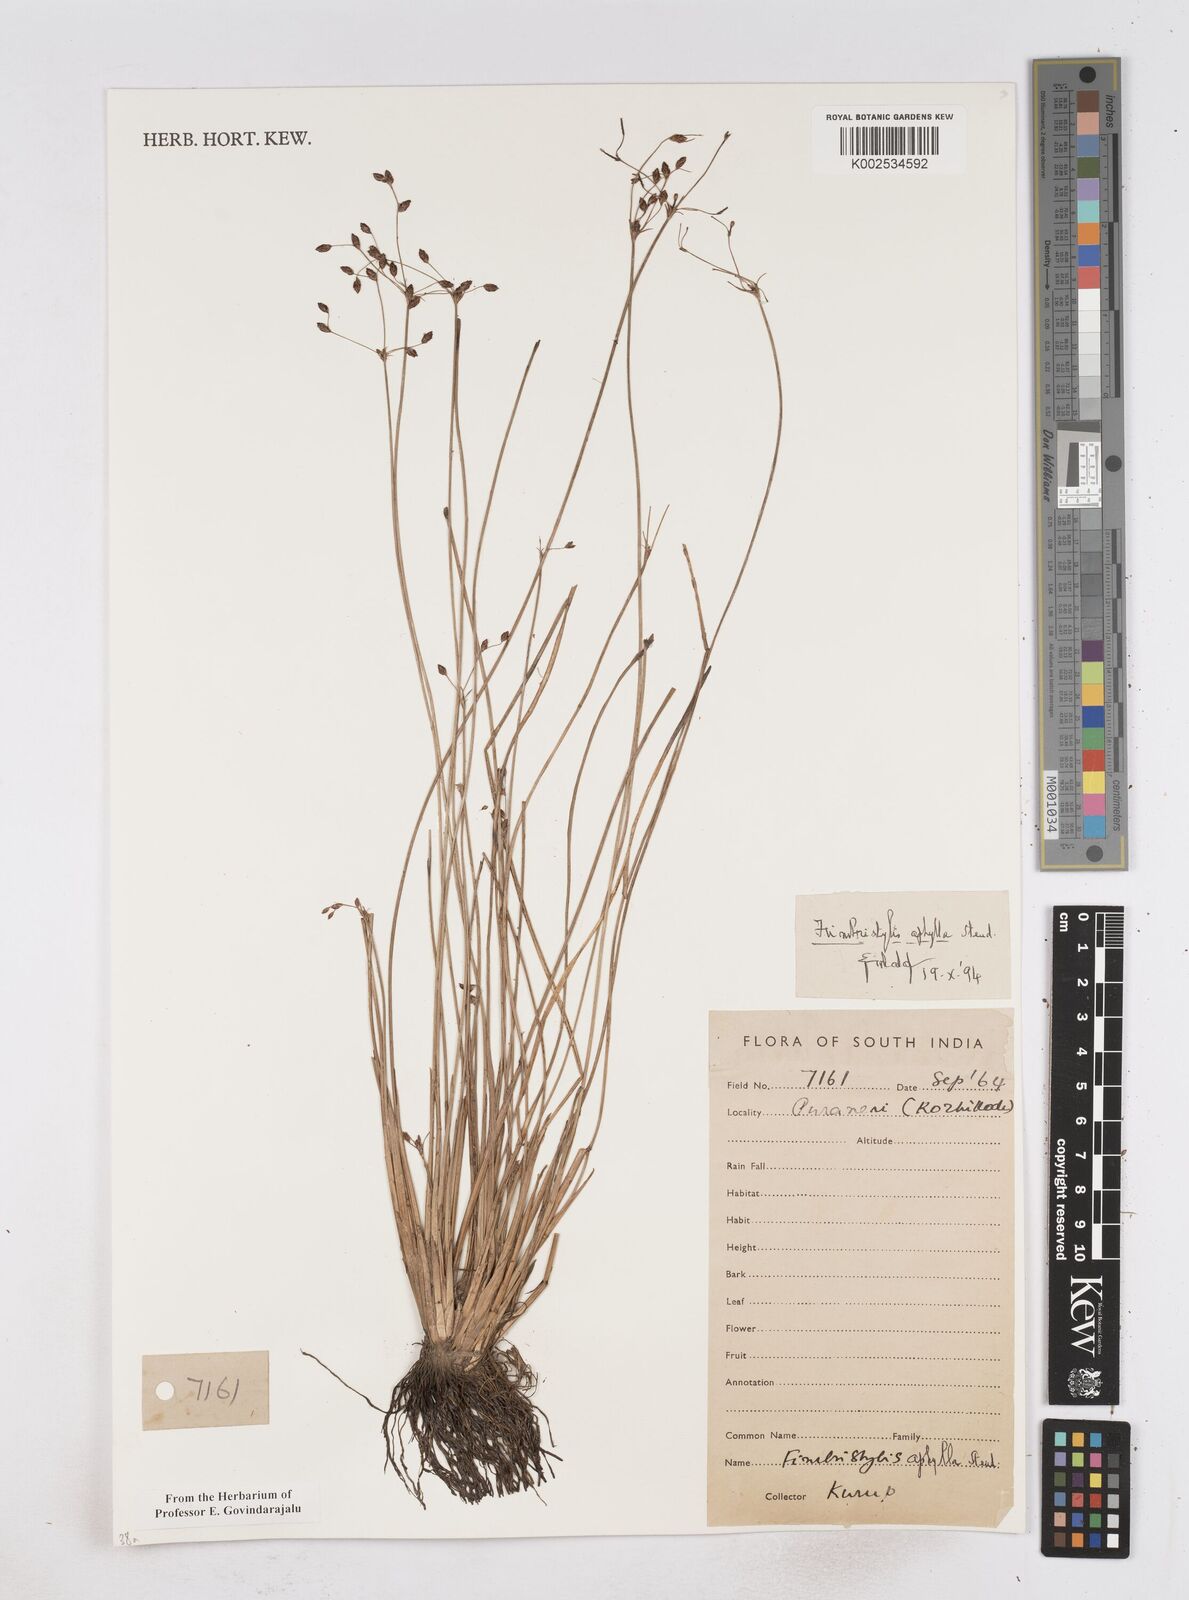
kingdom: Plantae
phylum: Tracheophyta
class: Liliopsida
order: Poales
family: Cyperaceae
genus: Fimbristylis
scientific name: Fimbristylis aphylla
